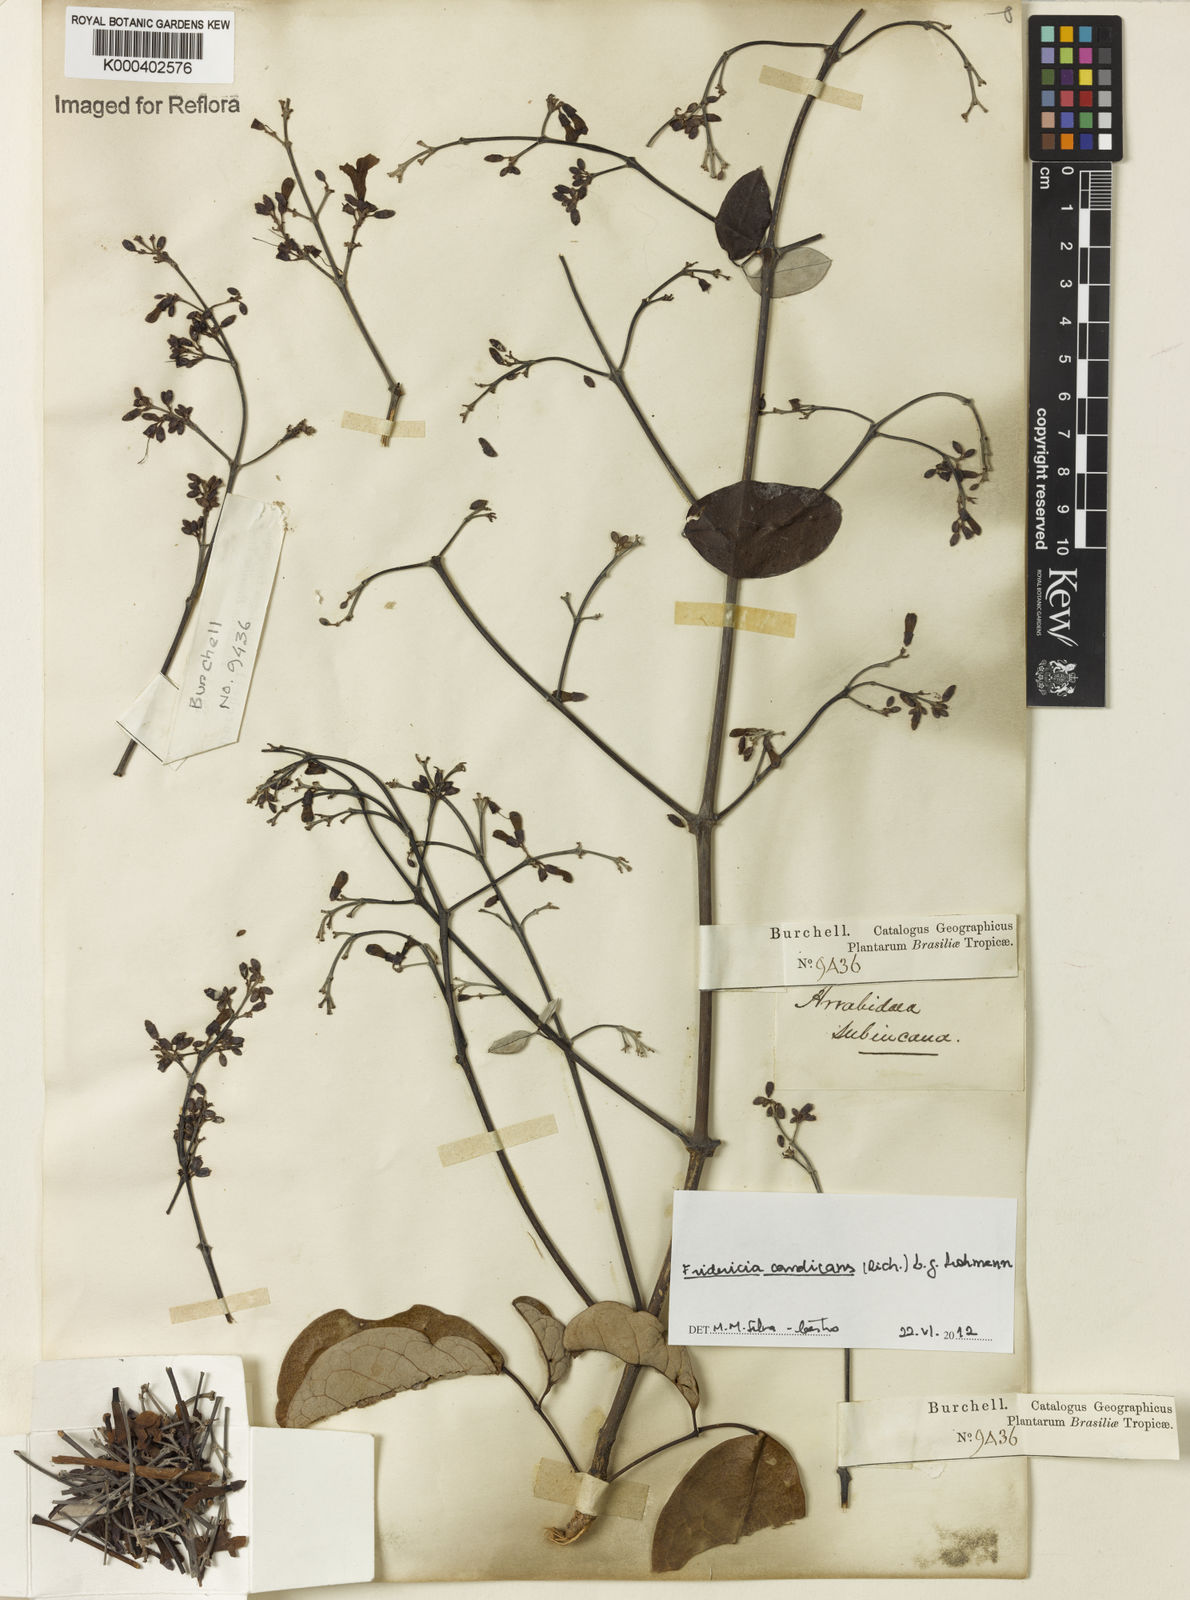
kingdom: Plantae
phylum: Tracheophyta
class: Magnoliopsida
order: Lamiales
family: Bignoniaceae
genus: Fridericia
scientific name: Fridericia
